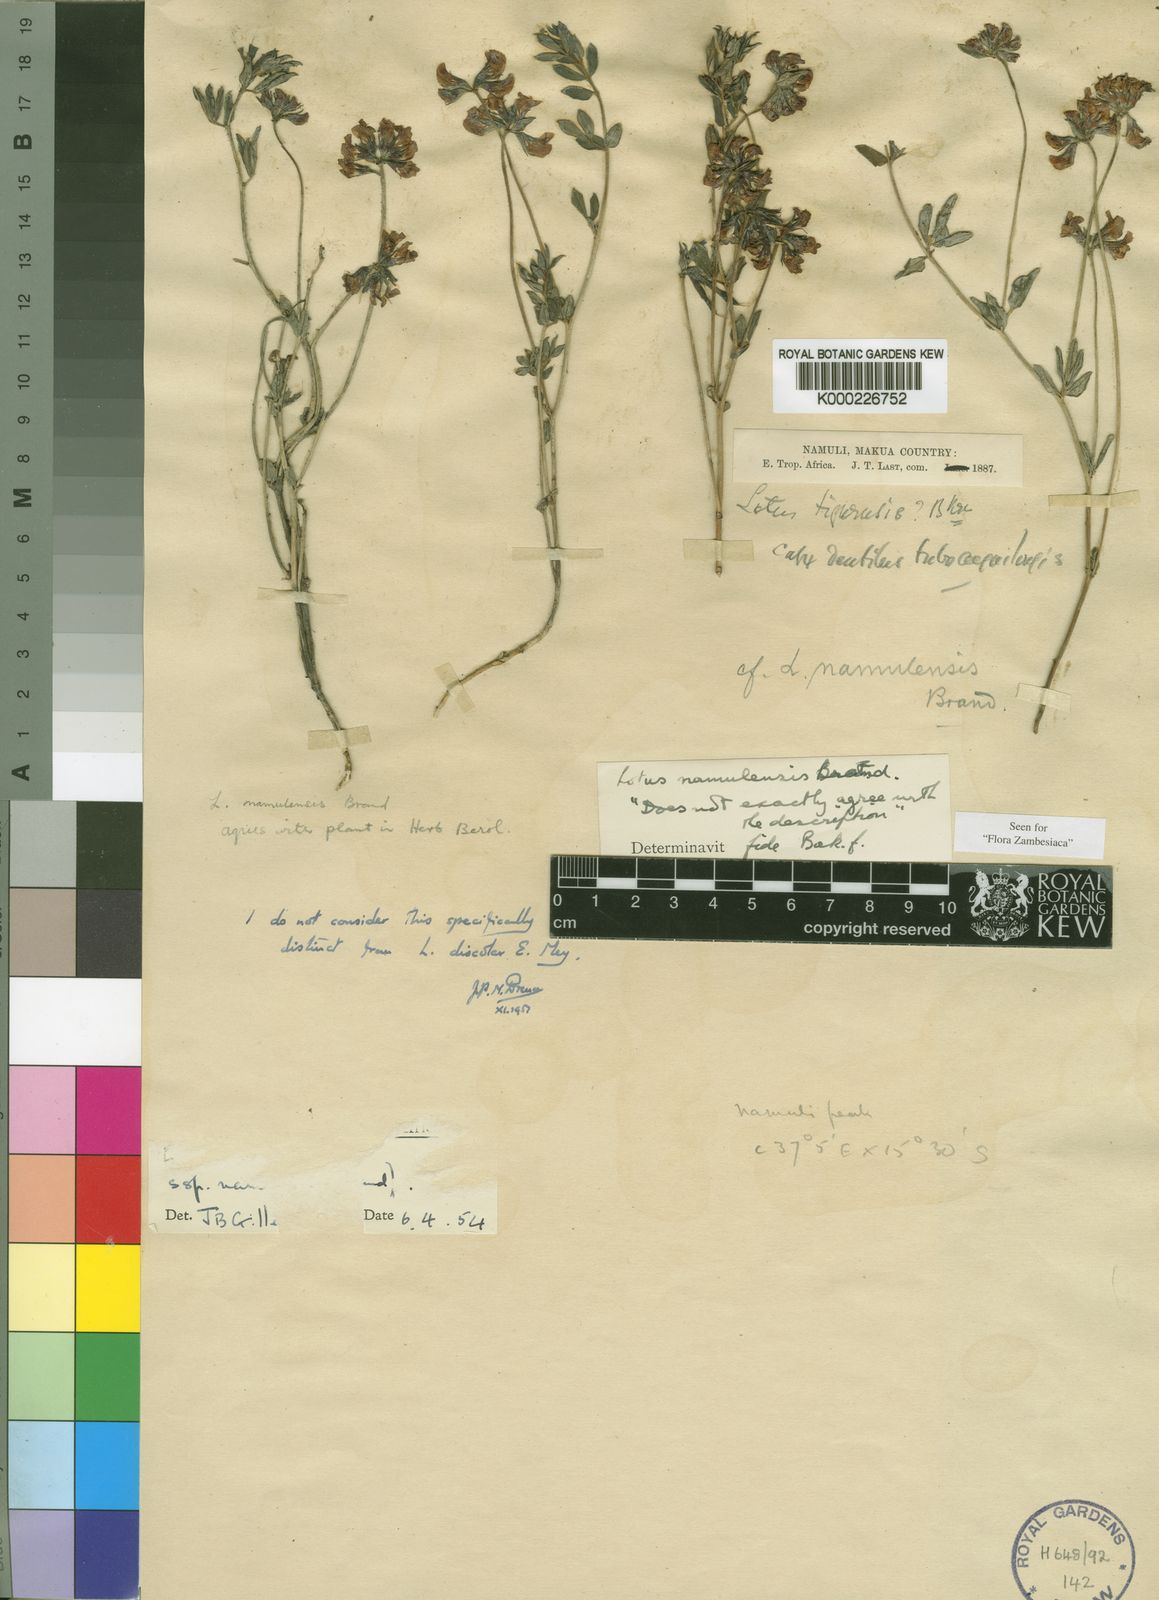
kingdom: Plantae
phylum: Tracheophyta
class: Magnoliopsida
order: Fabales
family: Fabaceae
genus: Lotus
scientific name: Lotus namulensis
